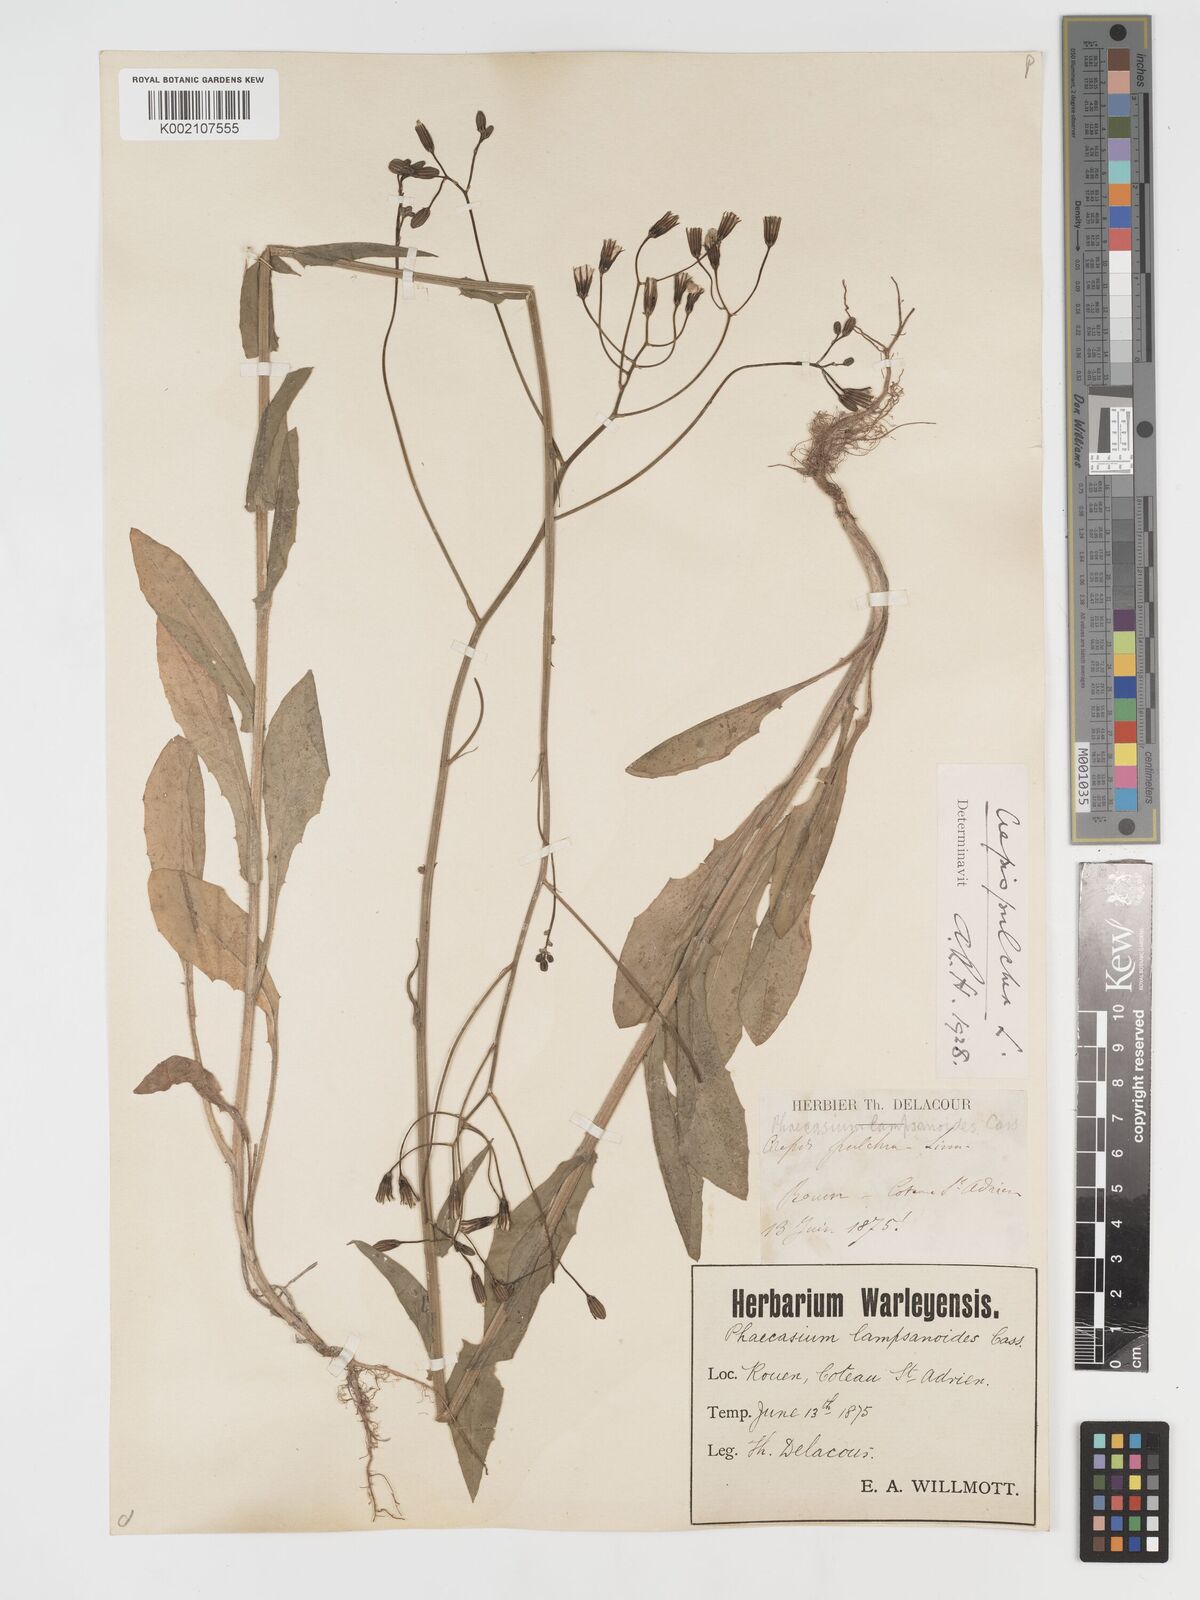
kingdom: Plantae
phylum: Tracheophyta
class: Magnoliopsida
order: Asterales
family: Asteraceae
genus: Crepis
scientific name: Crepis pulchra
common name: Hawk's-beard
